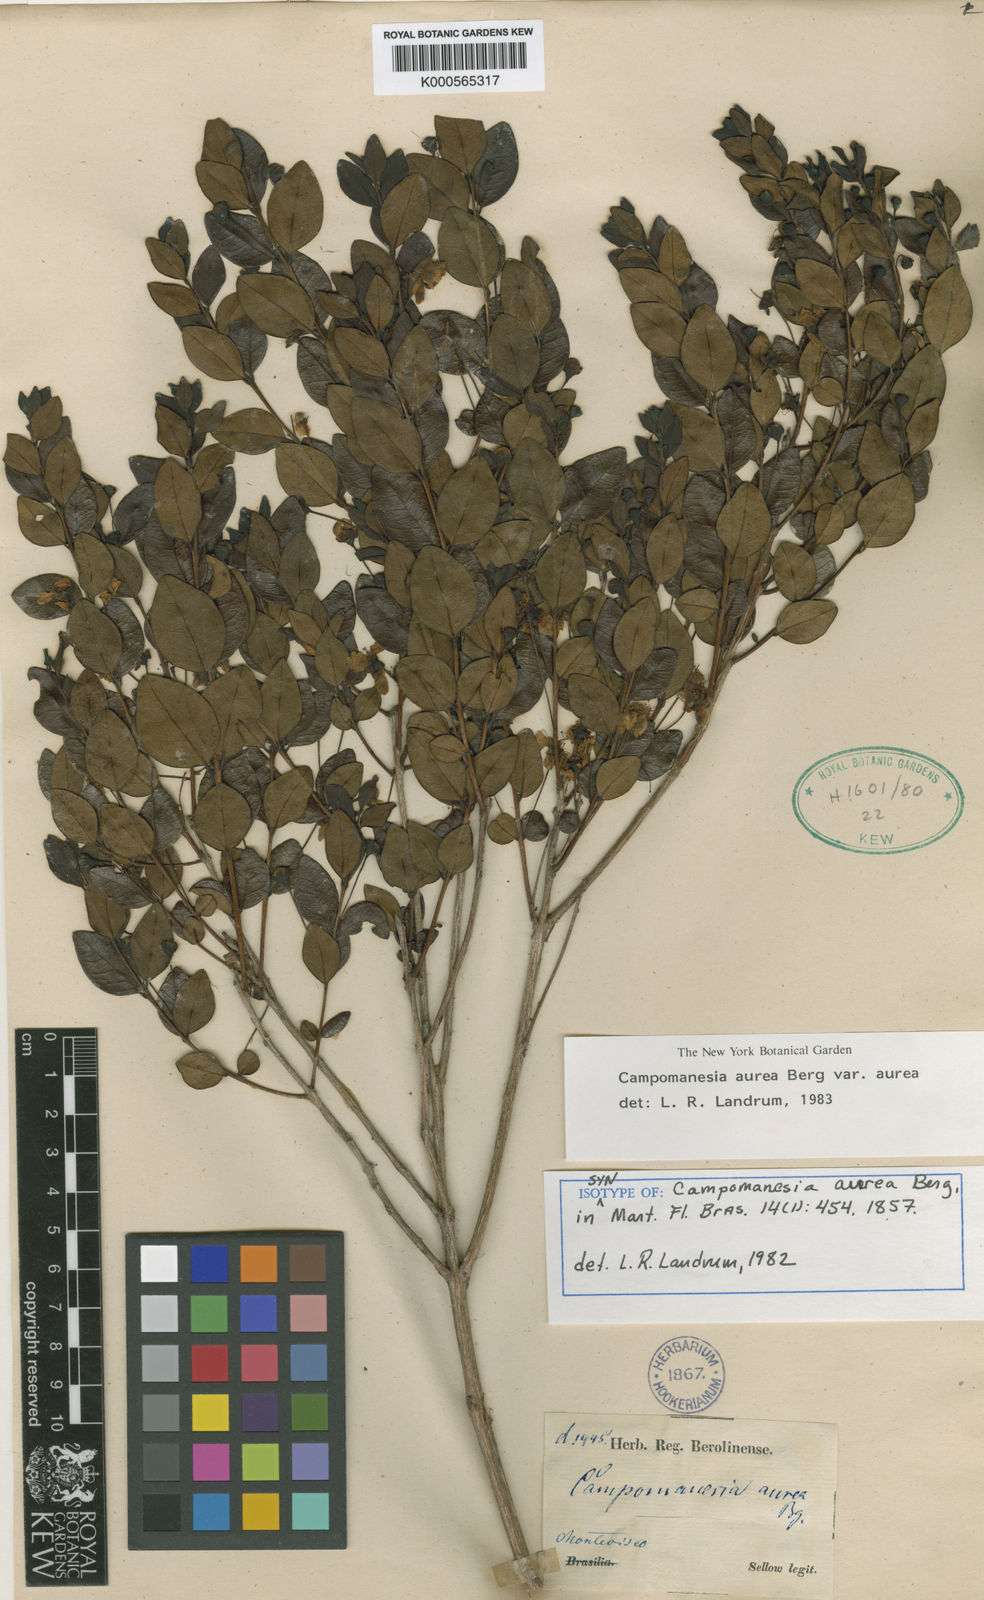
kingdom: Plantae
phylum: Tracheophyta
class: Magnoliopsida
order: Myrtales
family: Myrtaceae
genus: Campomanesia
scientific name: Campomanesia aurea
